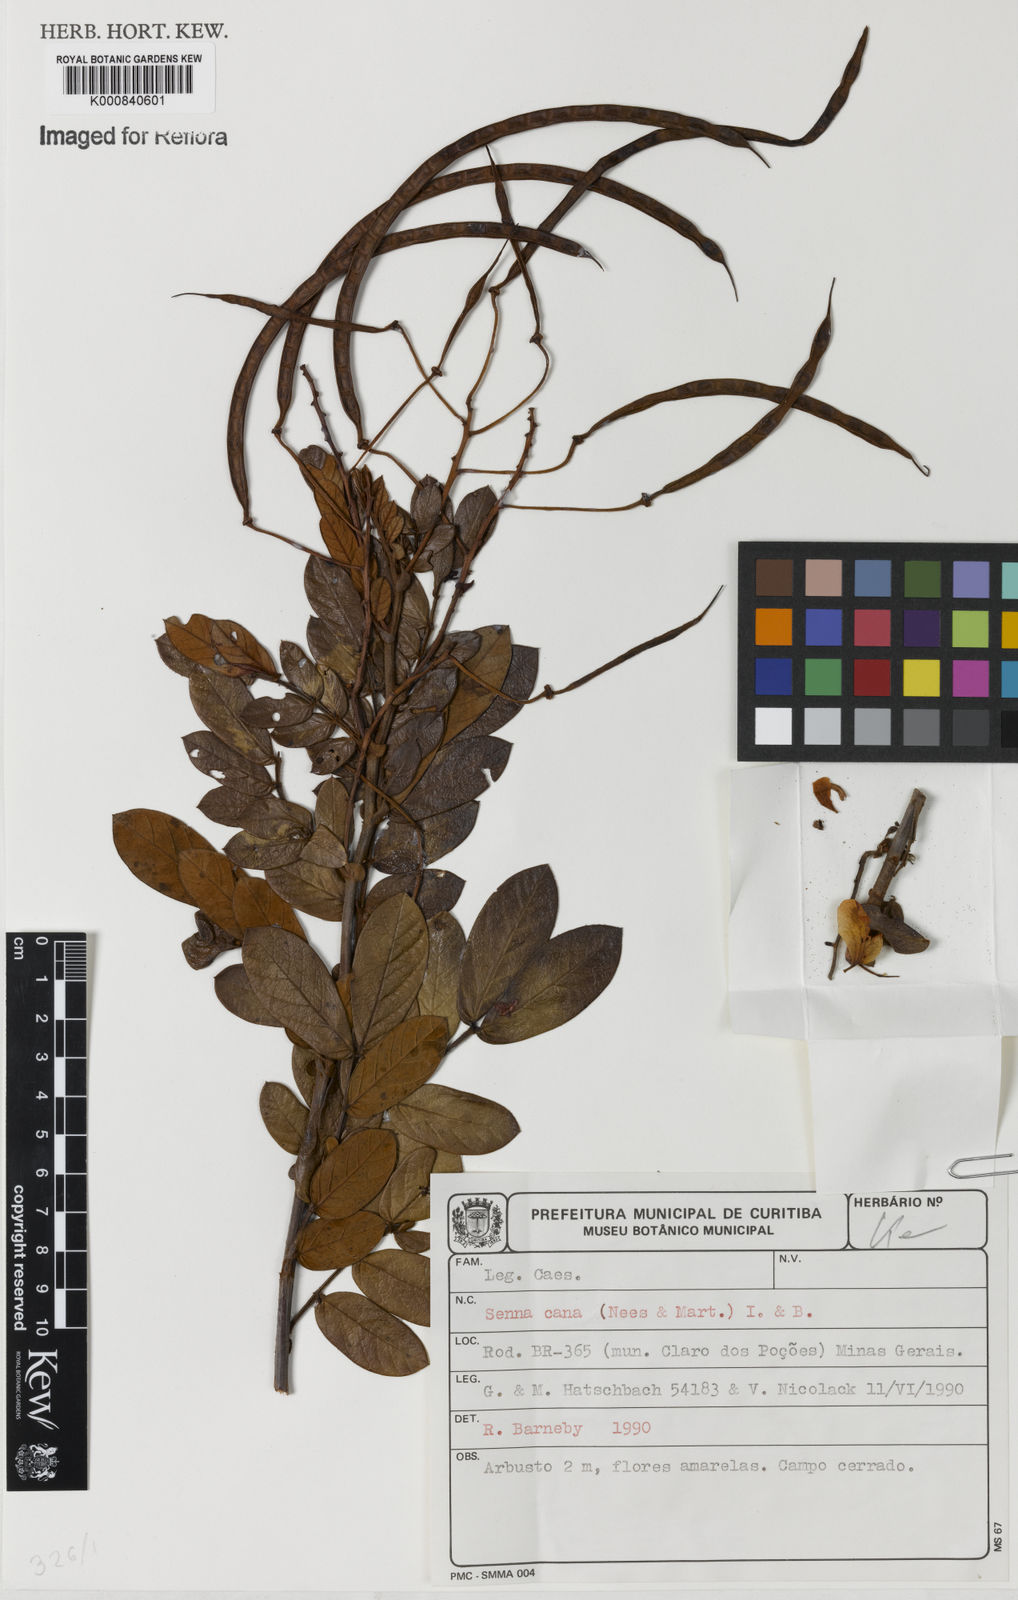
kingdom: Plantae
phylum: Tracheophyta
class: Magnoliopsida
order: Fabales
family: Fabaceae
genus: Senna
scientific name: Senna cana
